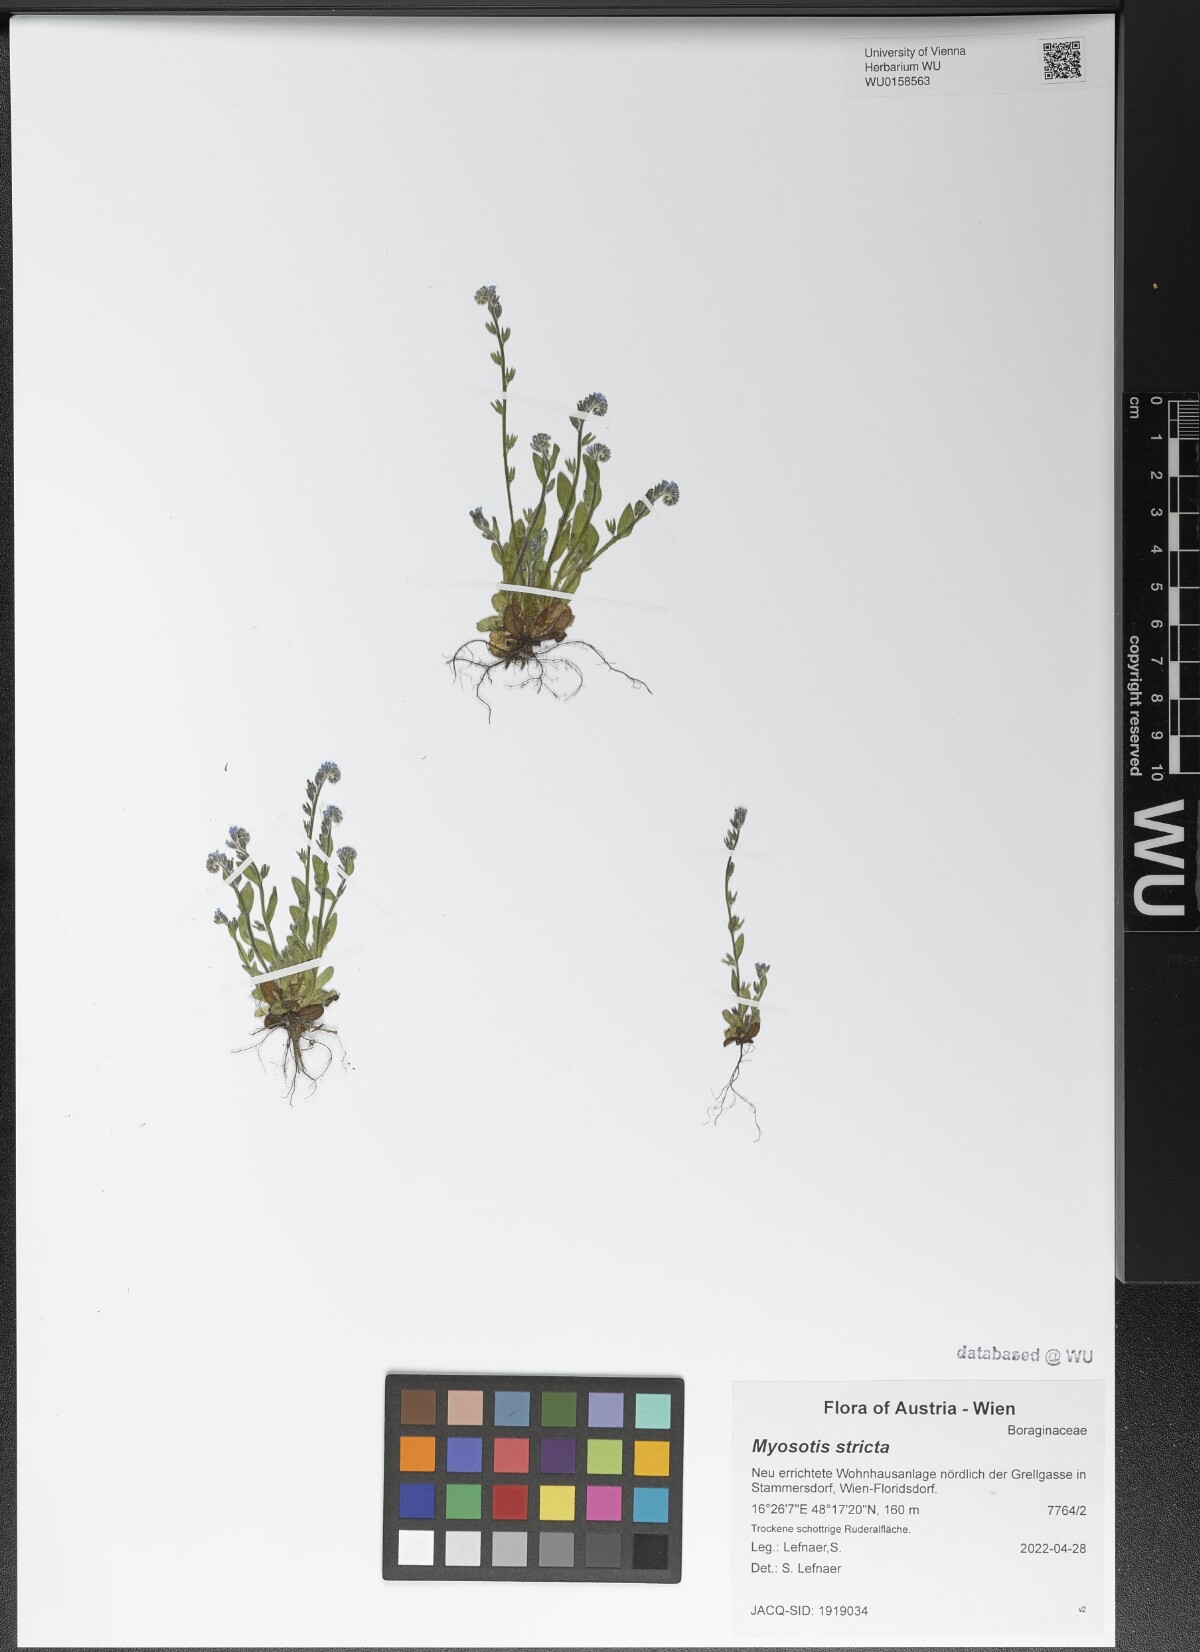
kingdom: Plantae
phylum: Tracheophyta
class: Magnoliopsida
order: Boraginales
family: Boraginaceae
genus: Myosotis
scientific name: Myosotis stricta
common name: Strict forget-me-not
